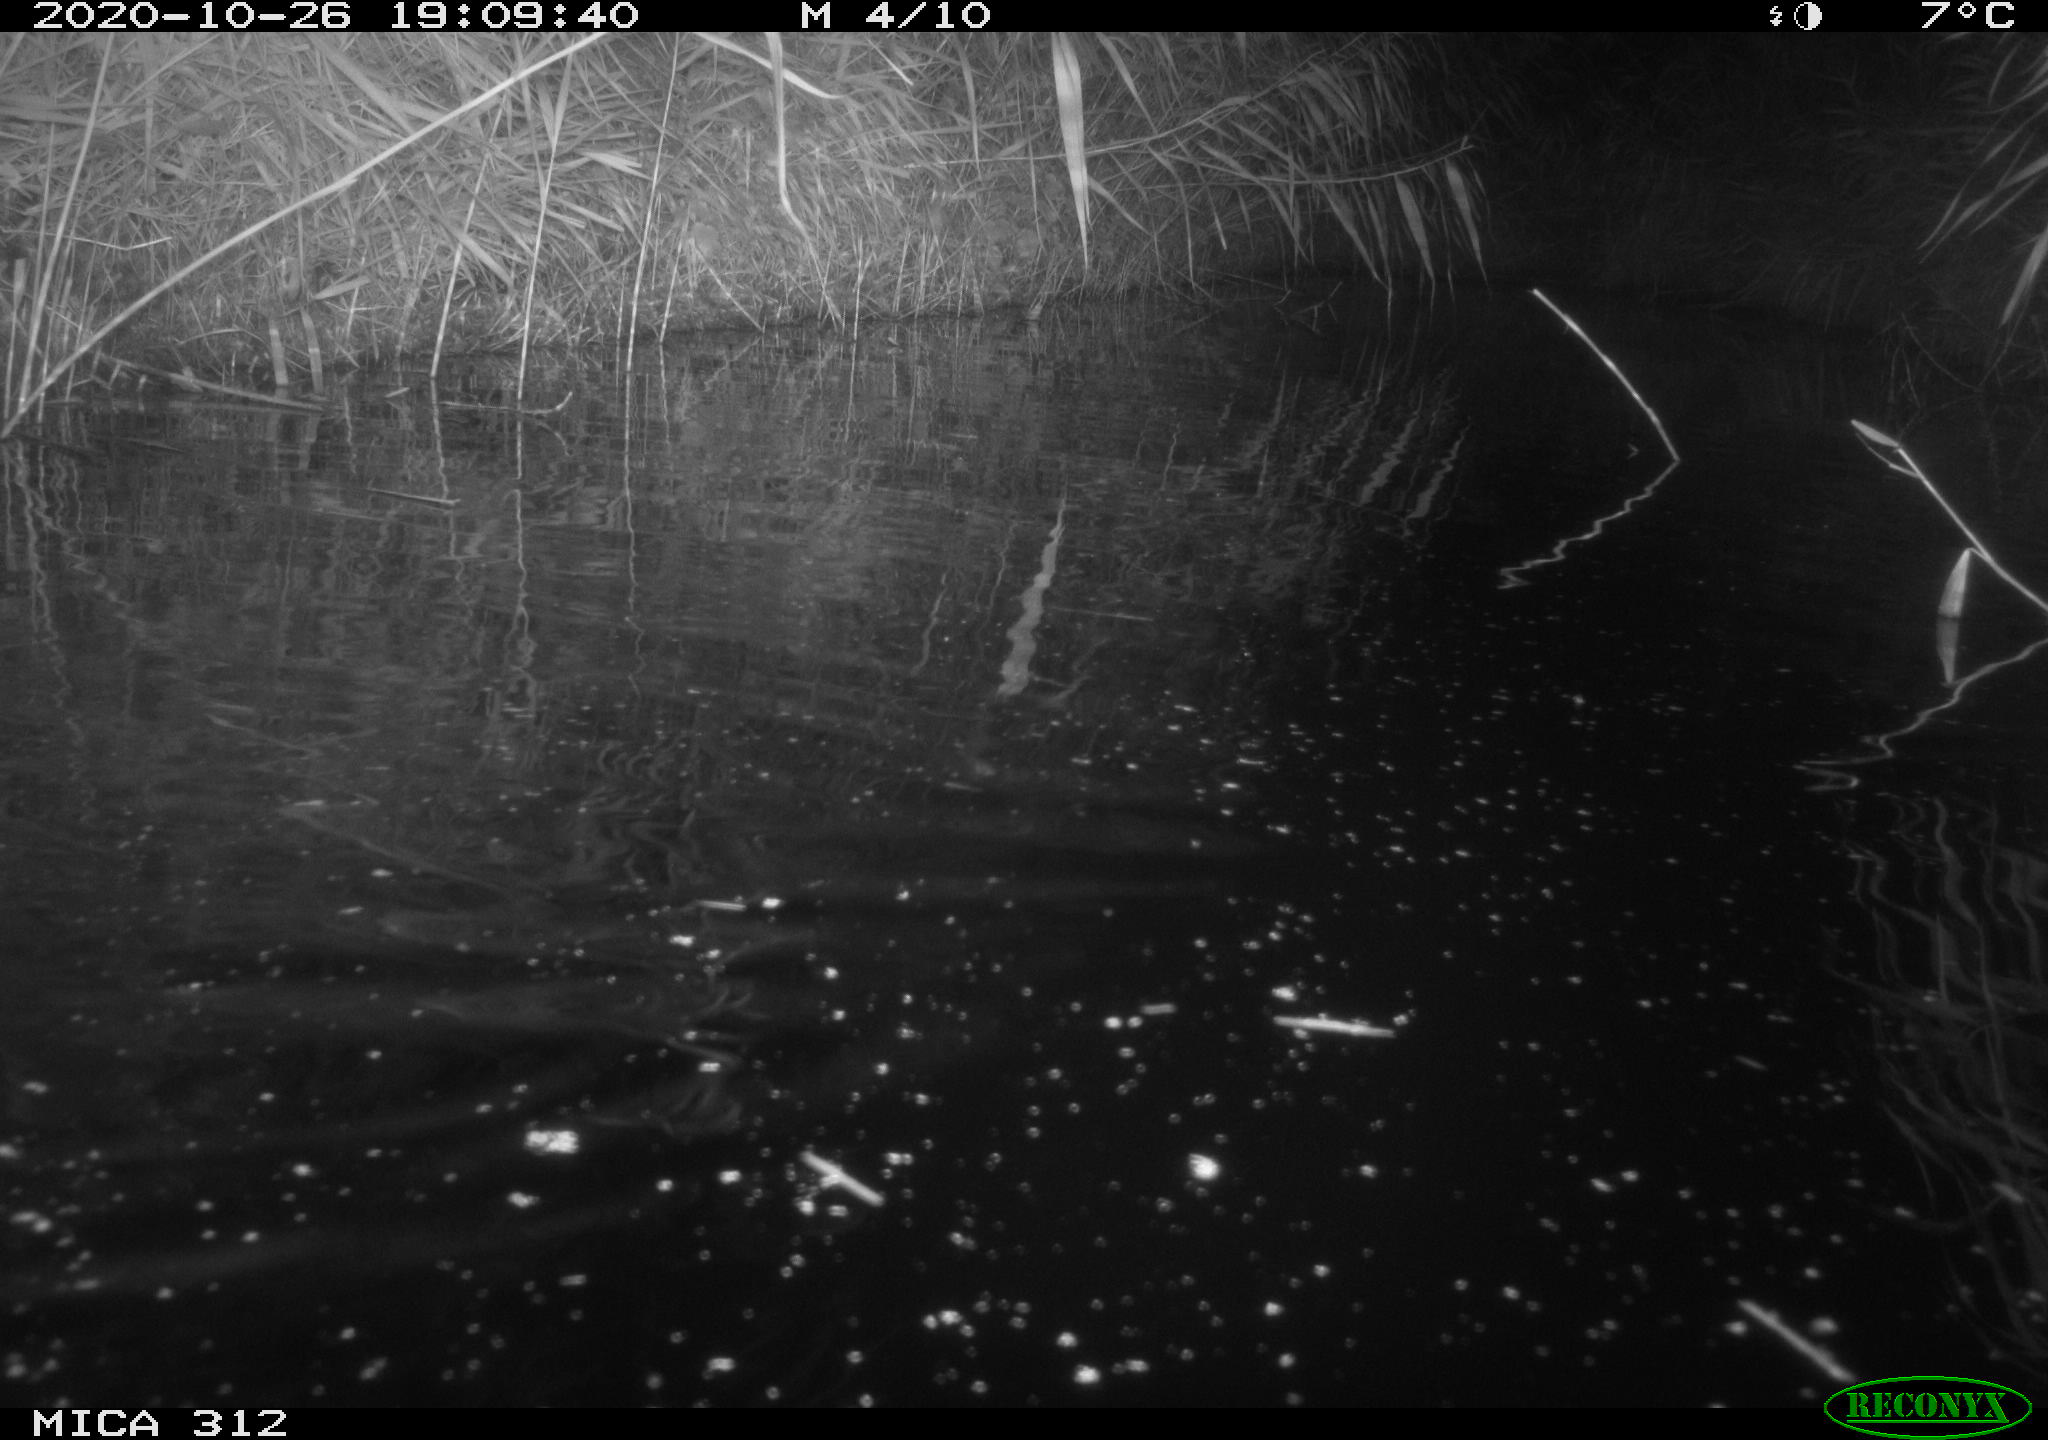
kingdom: Animalia
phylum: Chordata
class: Mammalia
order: Rodentia
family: Muridae
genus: Rattus
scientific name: Rattus norvegicus
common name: Brown rat
